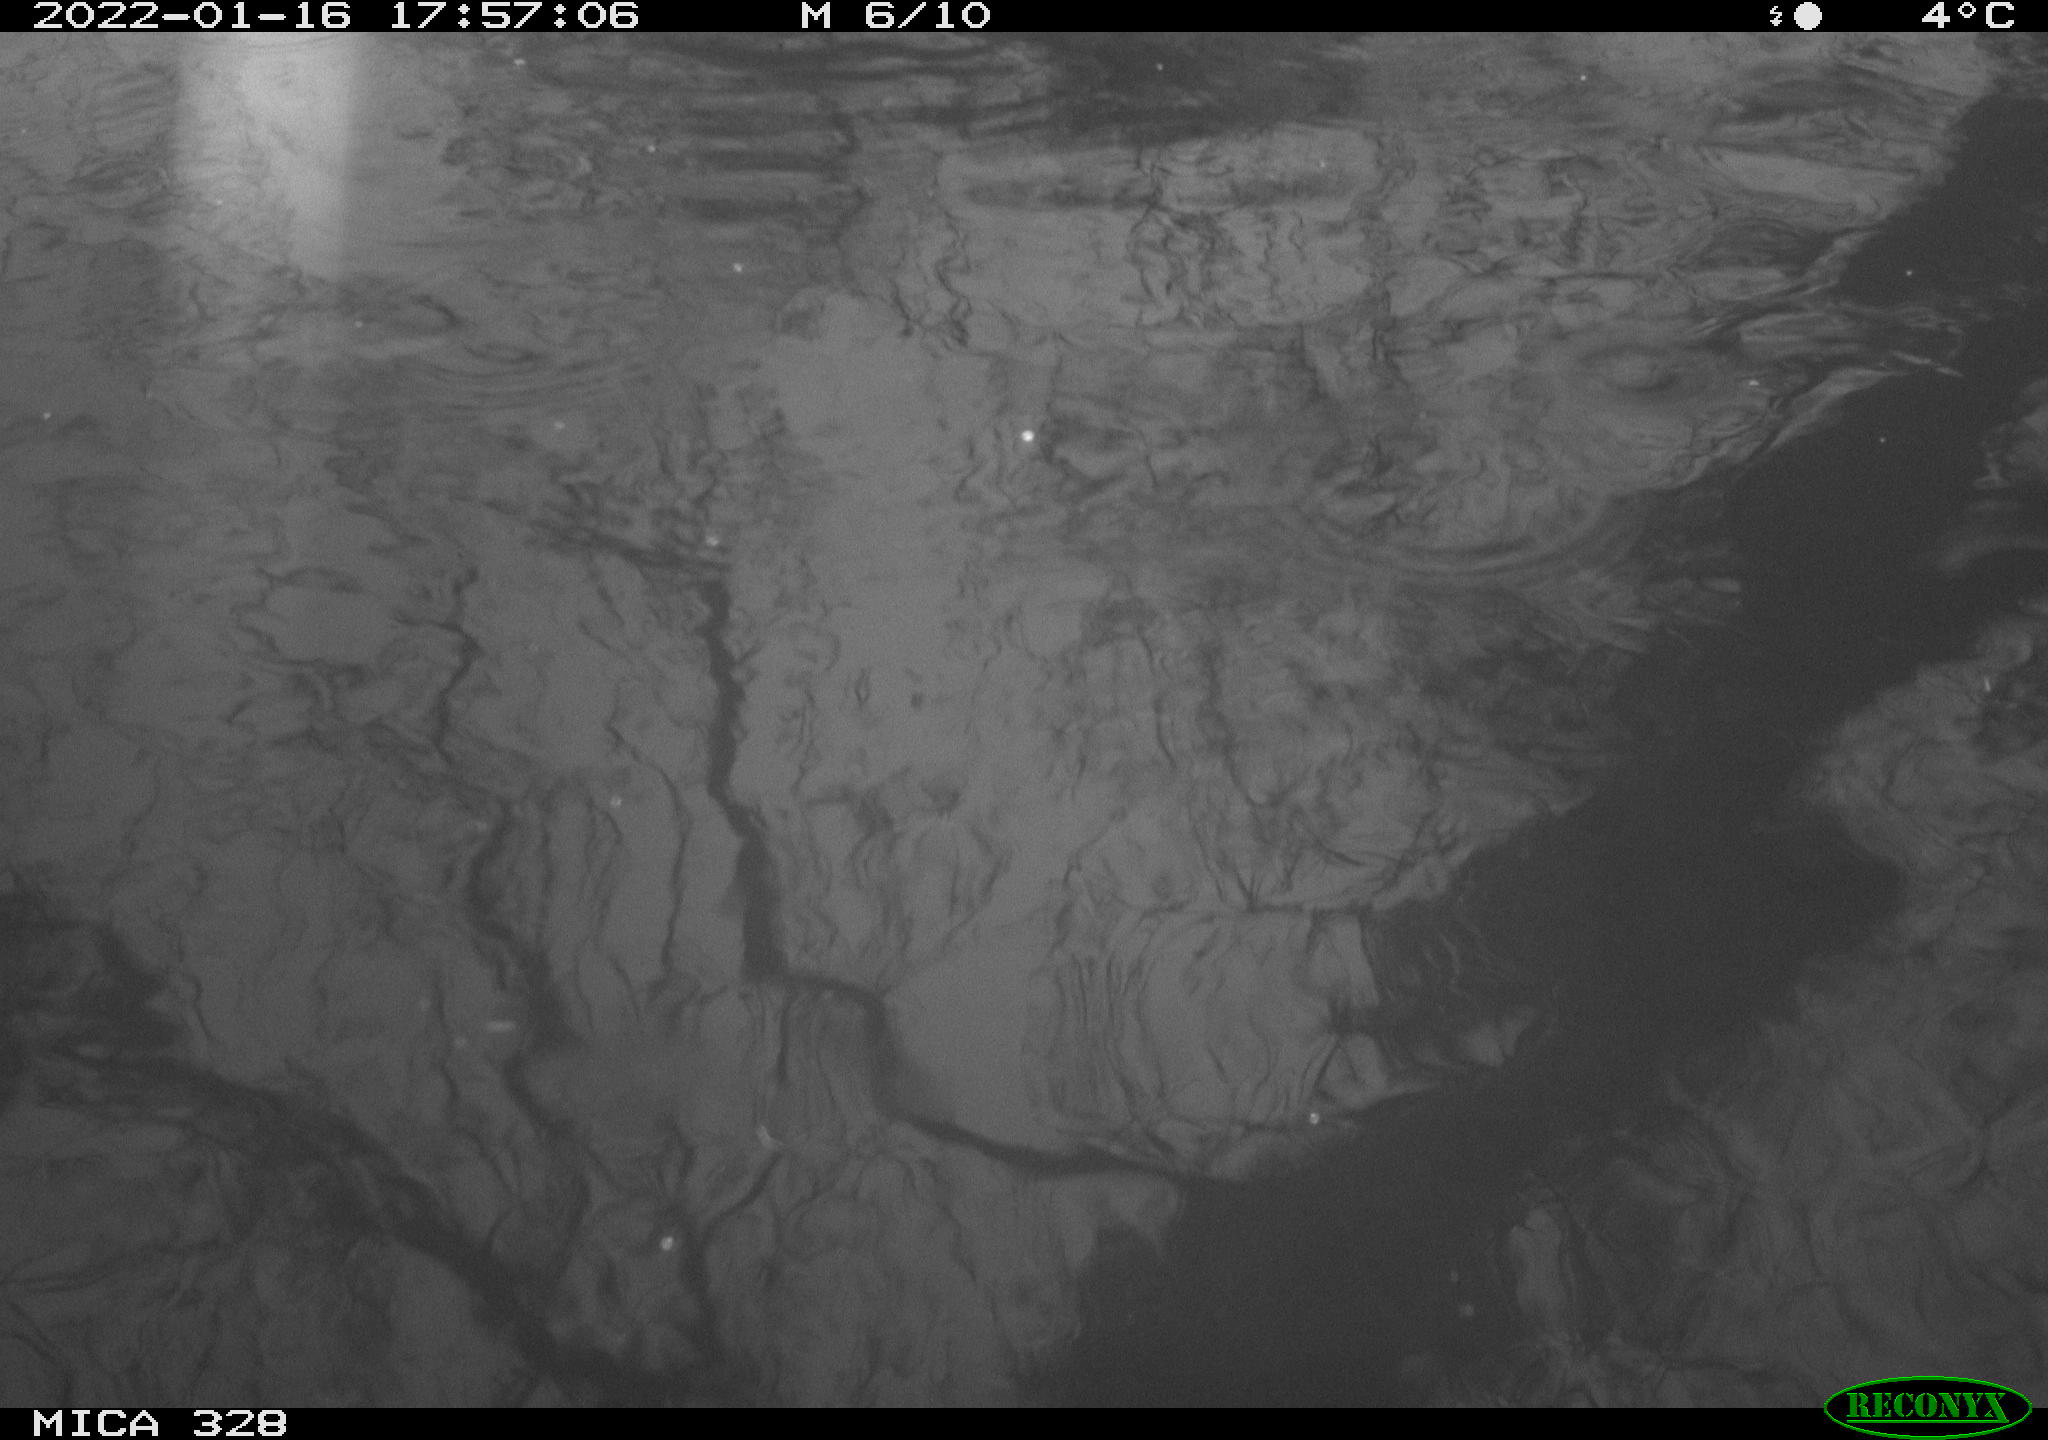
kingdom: Animalia
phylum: Chordata
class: Mammalia
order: Rodentia
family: Cricetidae
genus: Ondatra
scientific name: Ondatra zibethicus
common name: Muskrat
